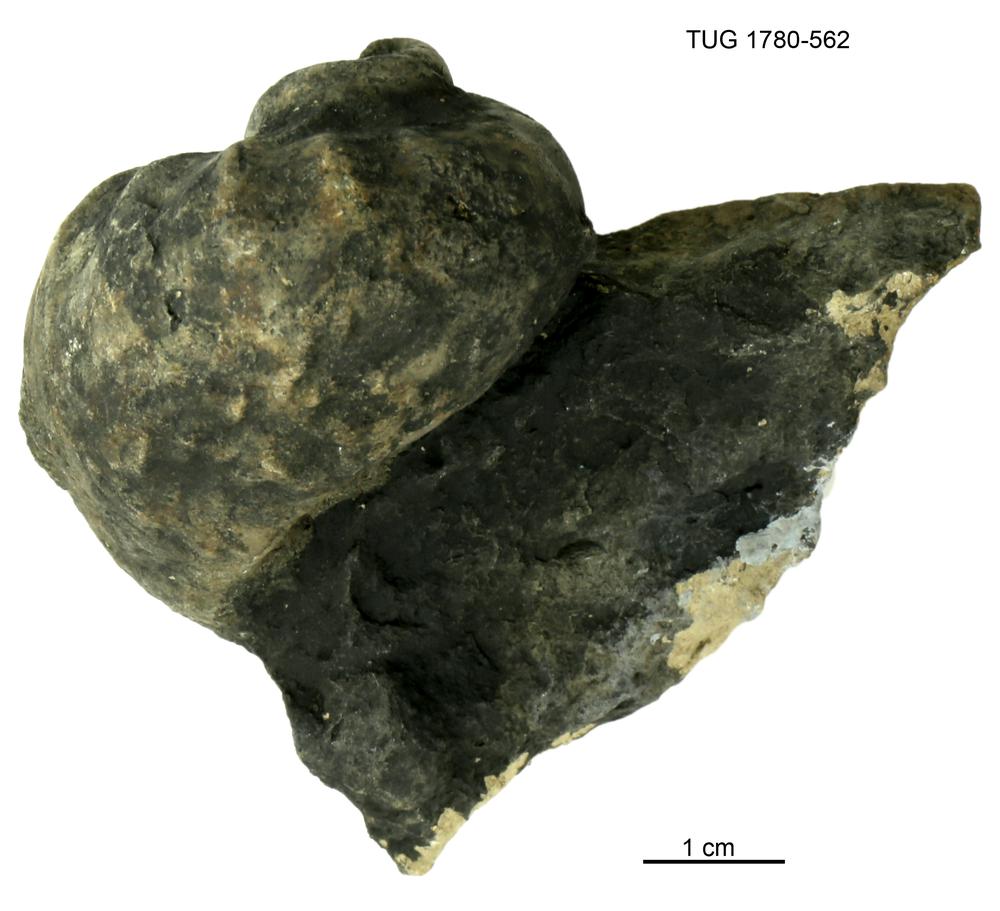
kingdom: Animalia
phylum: Mollusca
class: Gastropoda
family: Holopeidae
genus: Holopea
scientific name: Holopea ampullacea
